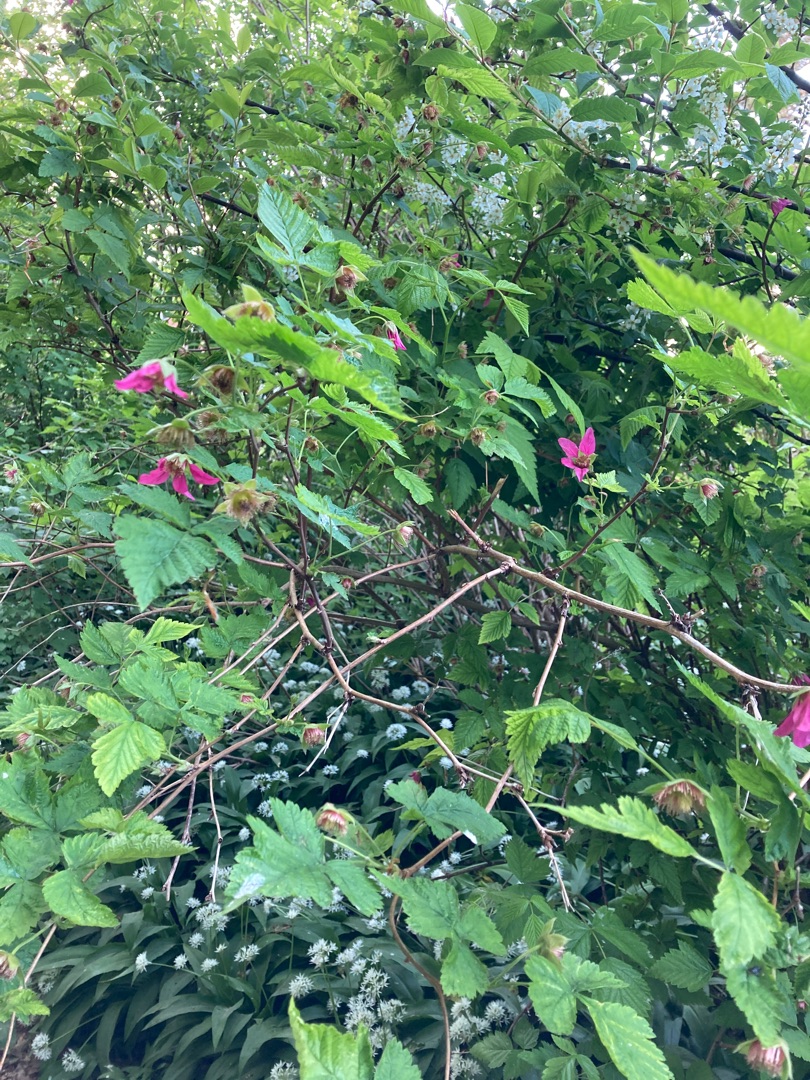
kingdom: Plantae
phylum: Tracheophyta
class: Magnoliopsida
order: Rosales
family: Rosaceae
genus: Rubus
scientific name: Rubus spectabilis
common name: Laksebær
